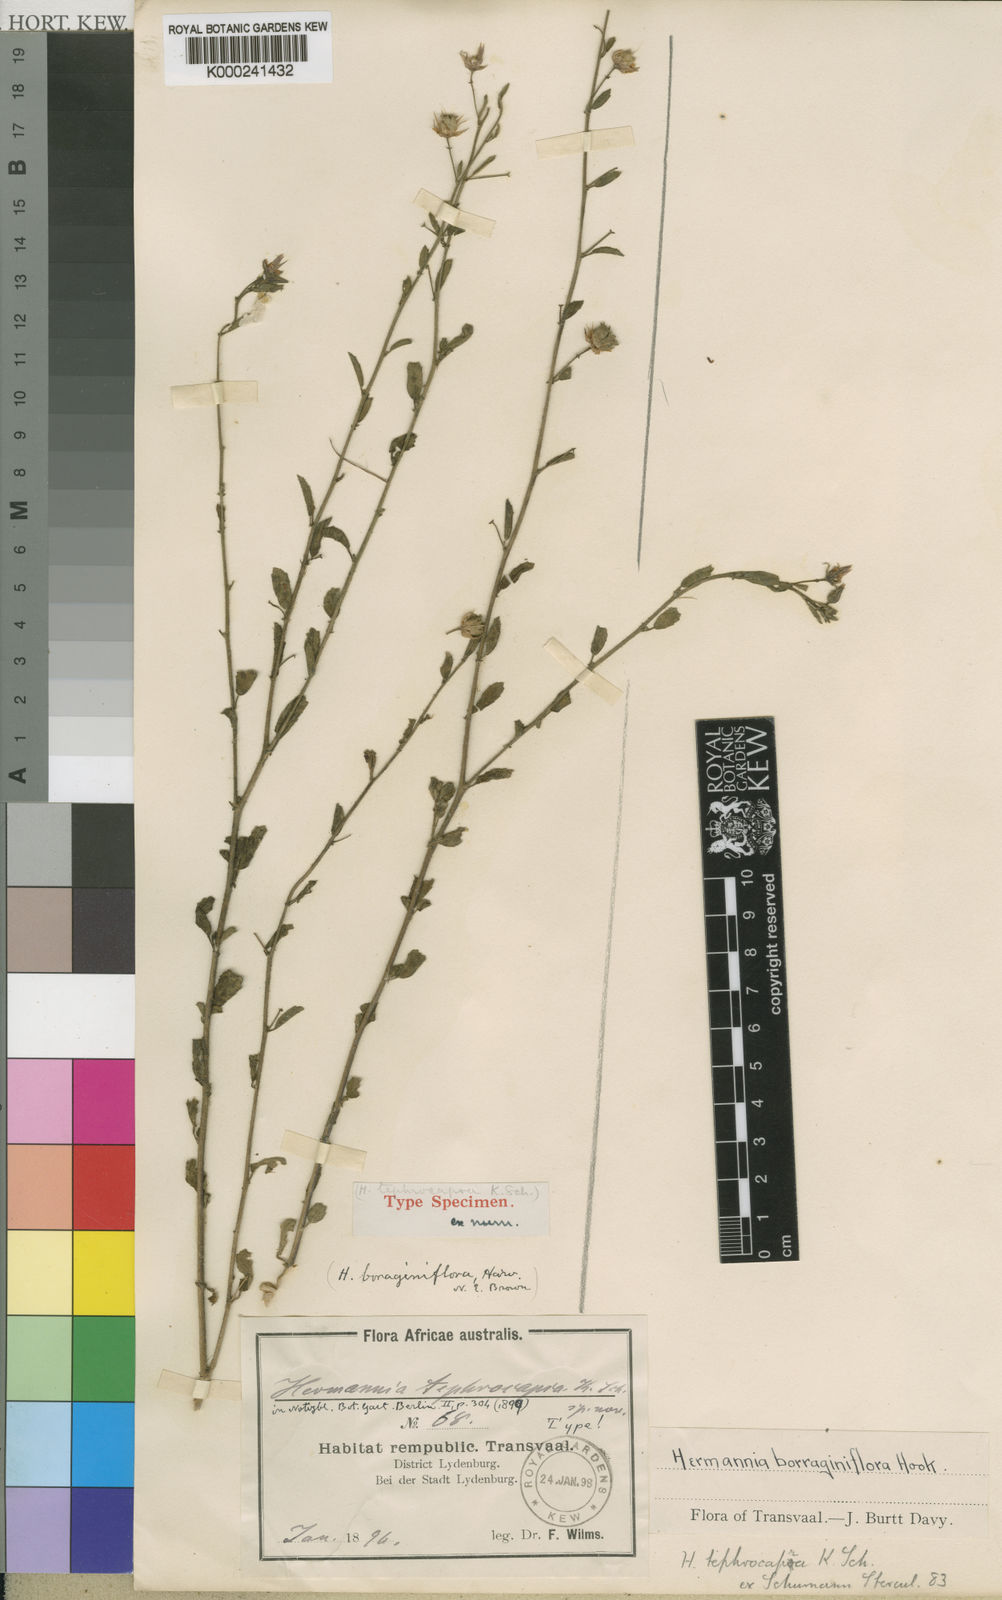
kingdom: Plantae
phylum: Tracheophyta
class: Magnoliopsida
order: Malvales
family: Malvaceae
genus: Hermannia
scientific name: Hermannia boraginiflora
